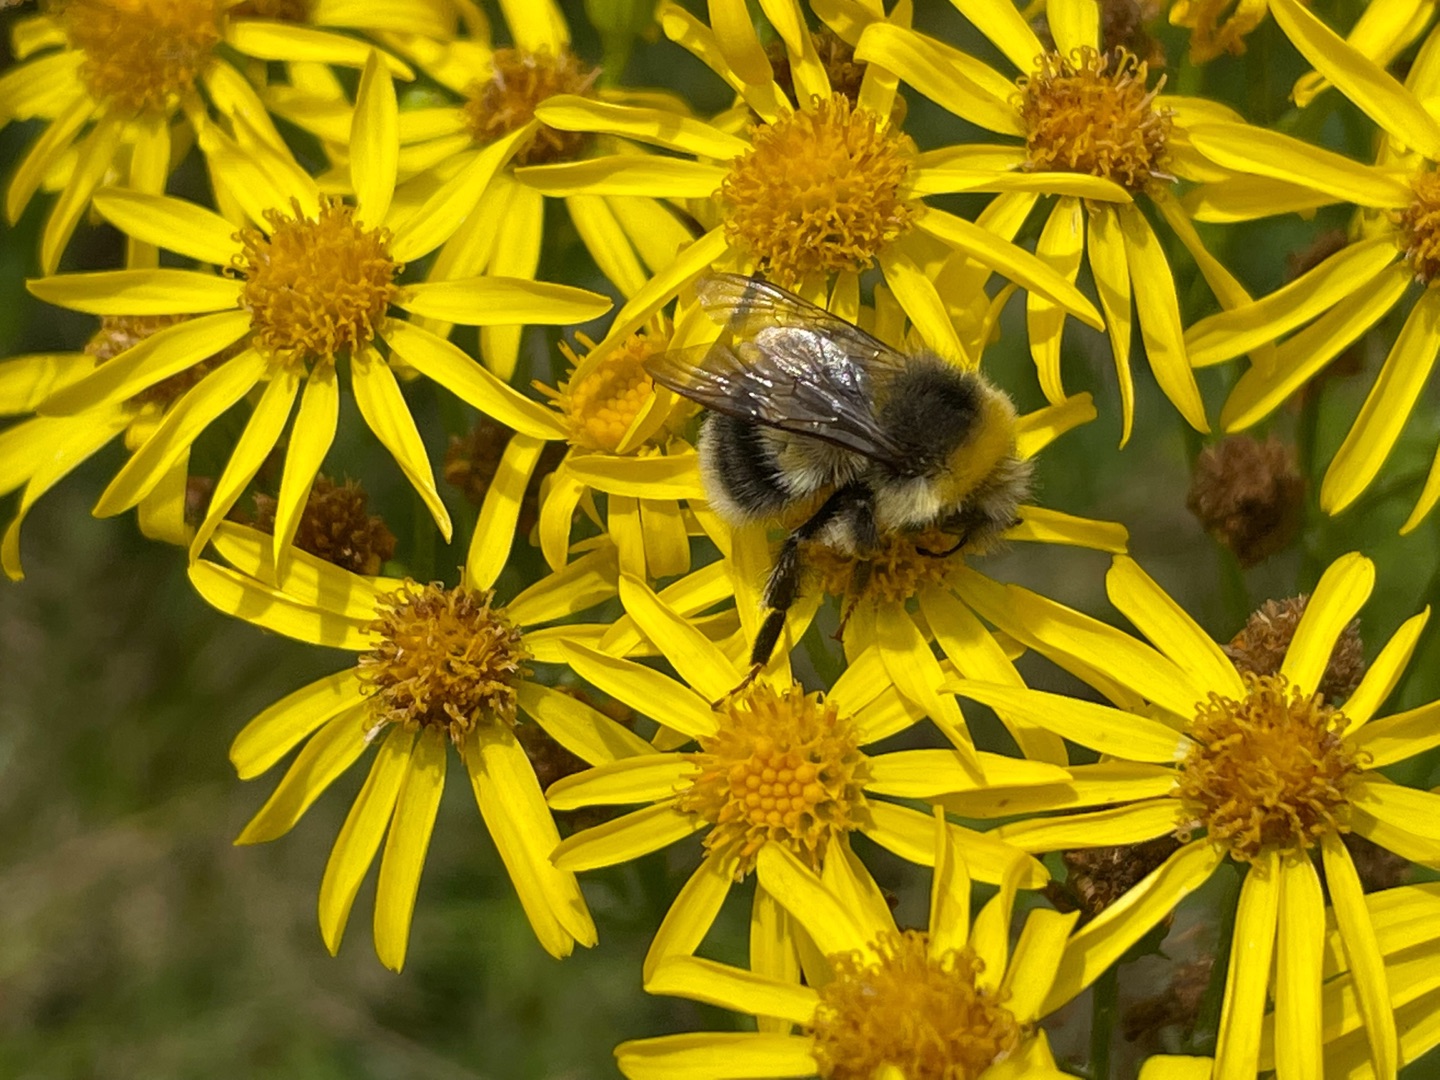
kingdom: Plantae
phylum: Tracheophyta
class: Magnoliopsida
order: Asterales
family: Asteraceae
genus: Jacobaea
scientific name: Jacobaea vulgaris
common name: Eng-brandbæger
